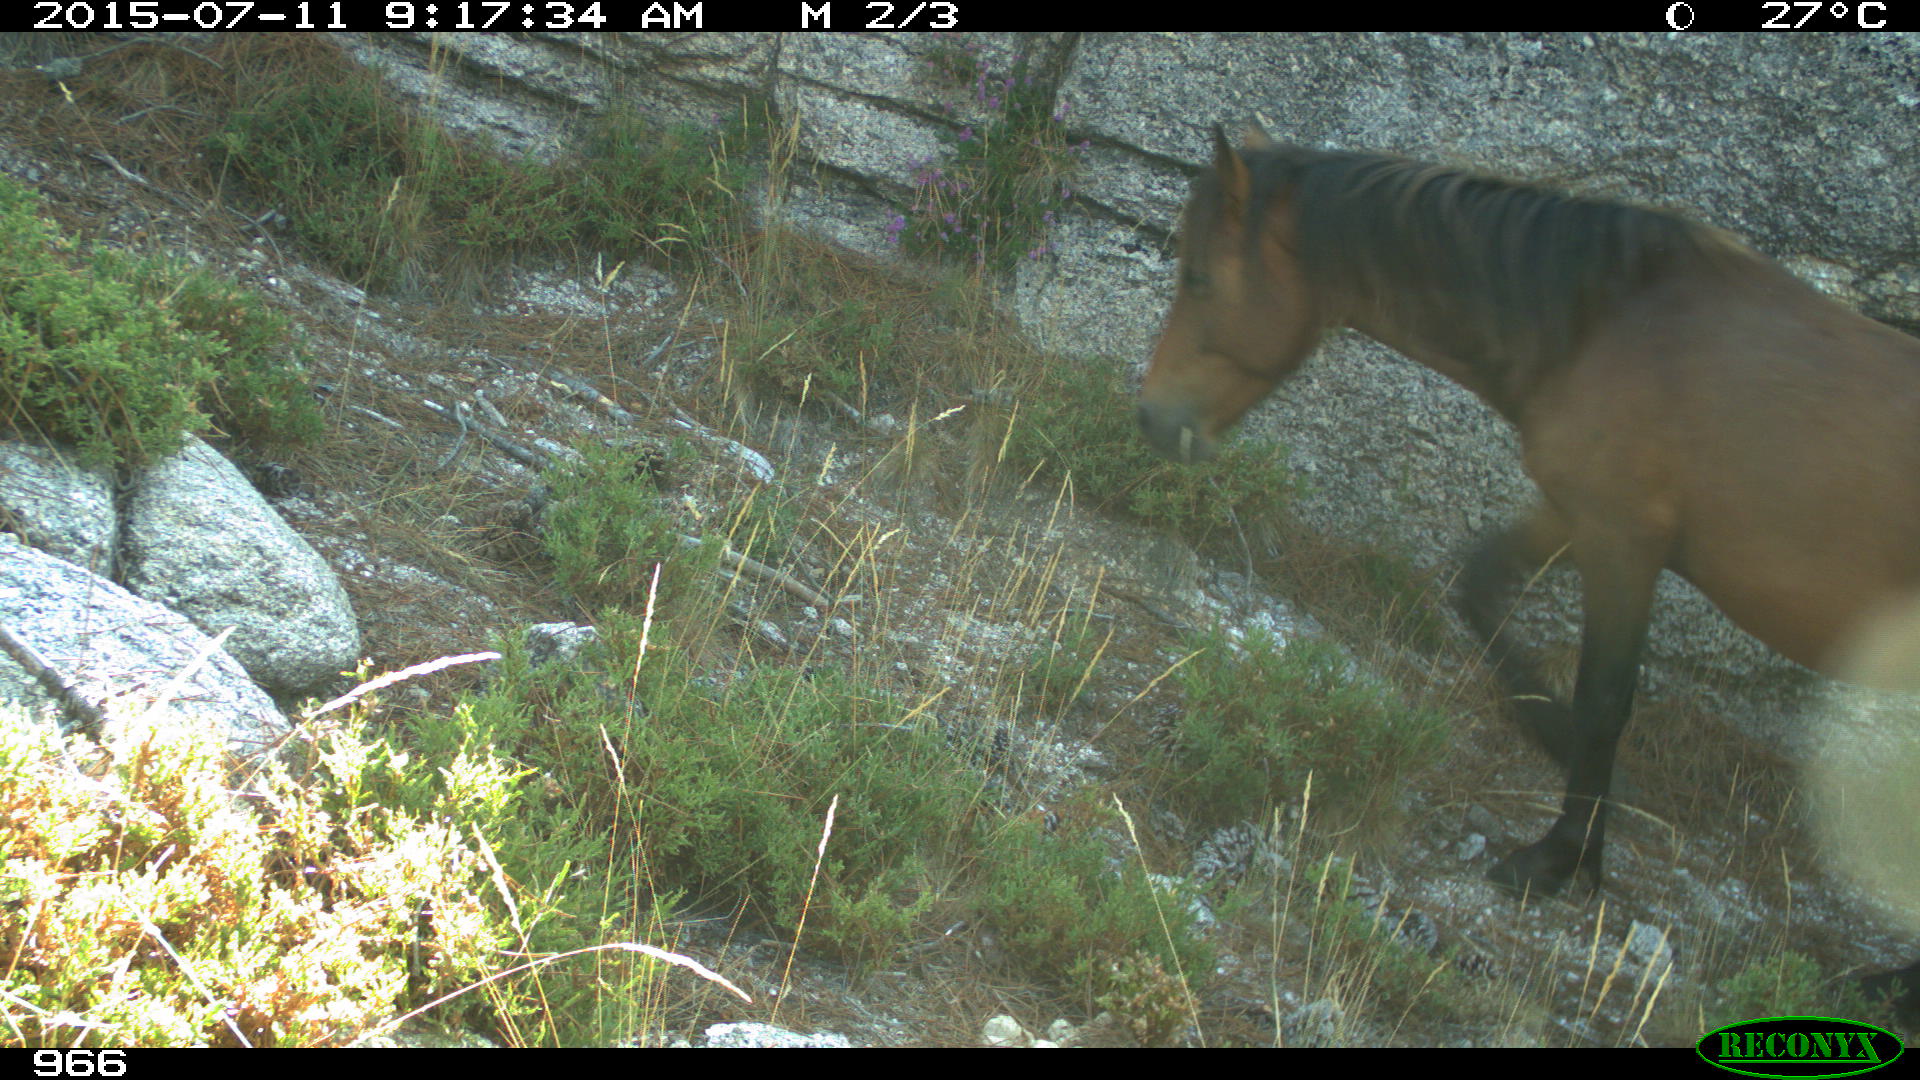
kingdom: Animalia
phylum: Chordata
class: Mammalia
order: Perissodactyla
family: Equidae
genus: Equus
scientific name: Equus caballus
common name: Horse
